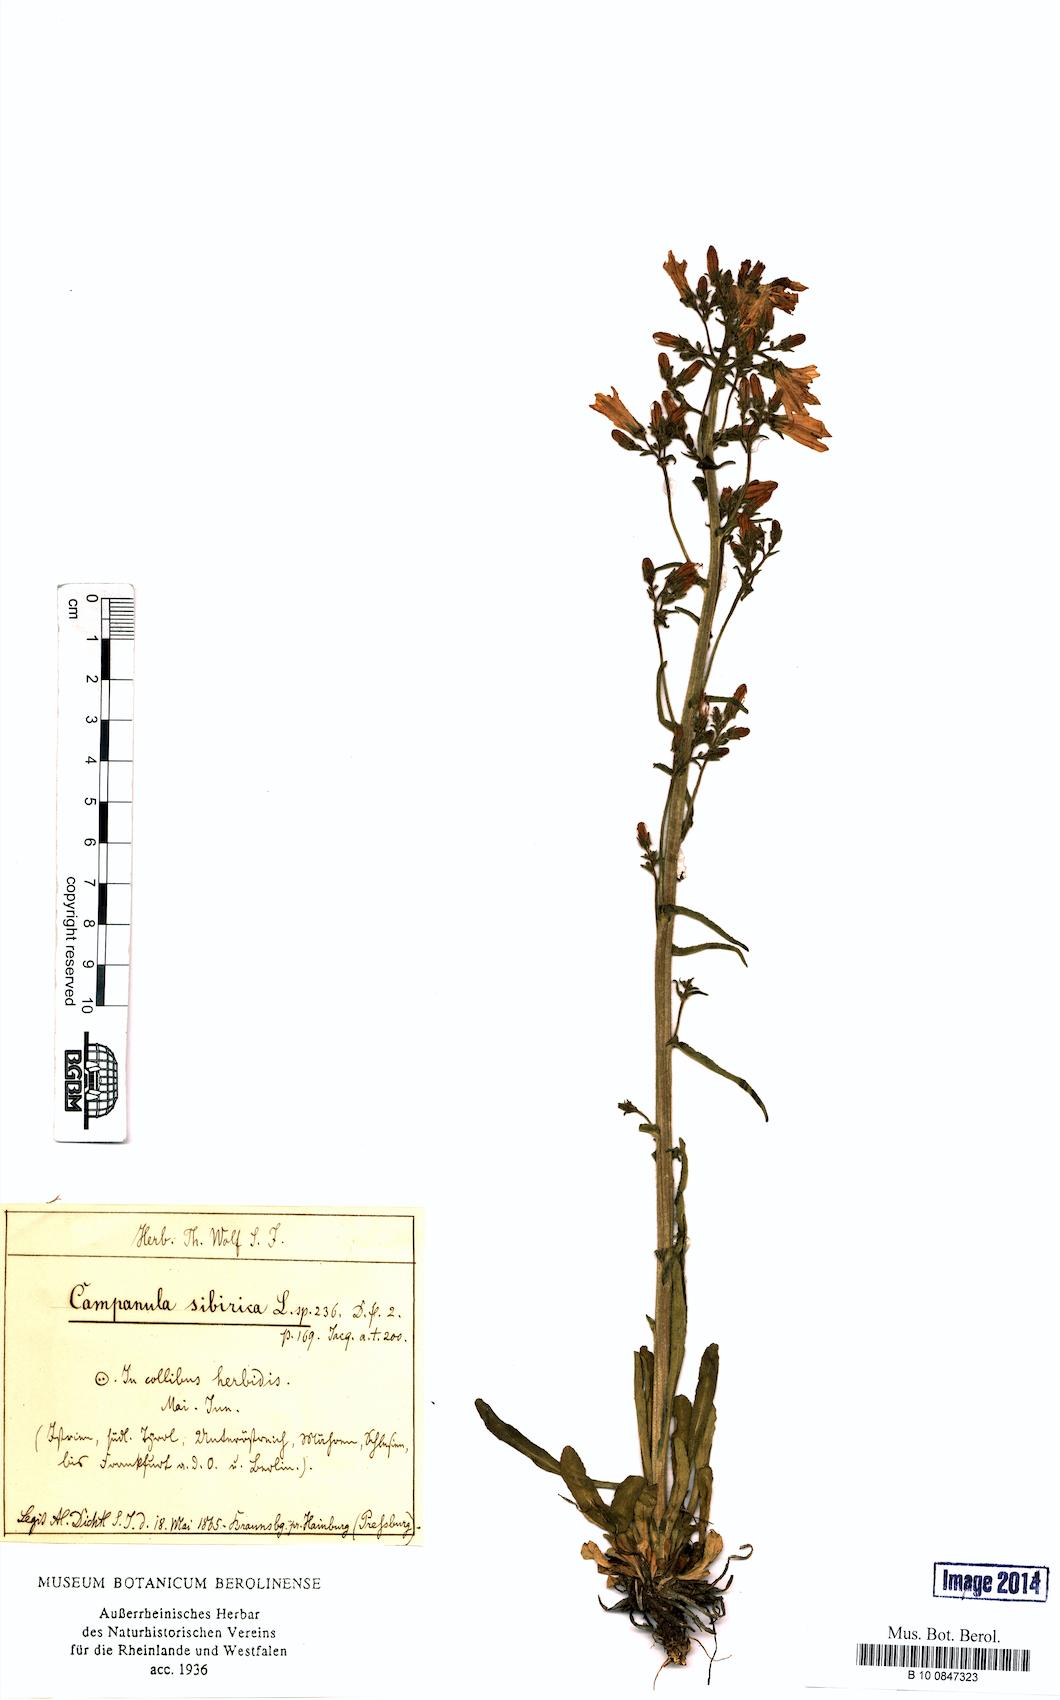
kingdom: Plantae
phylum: Tracheophyta
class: Magnoliopsida
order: Asterales
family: Campanulaceae
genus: Campanula
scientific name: Campanula sibirica
